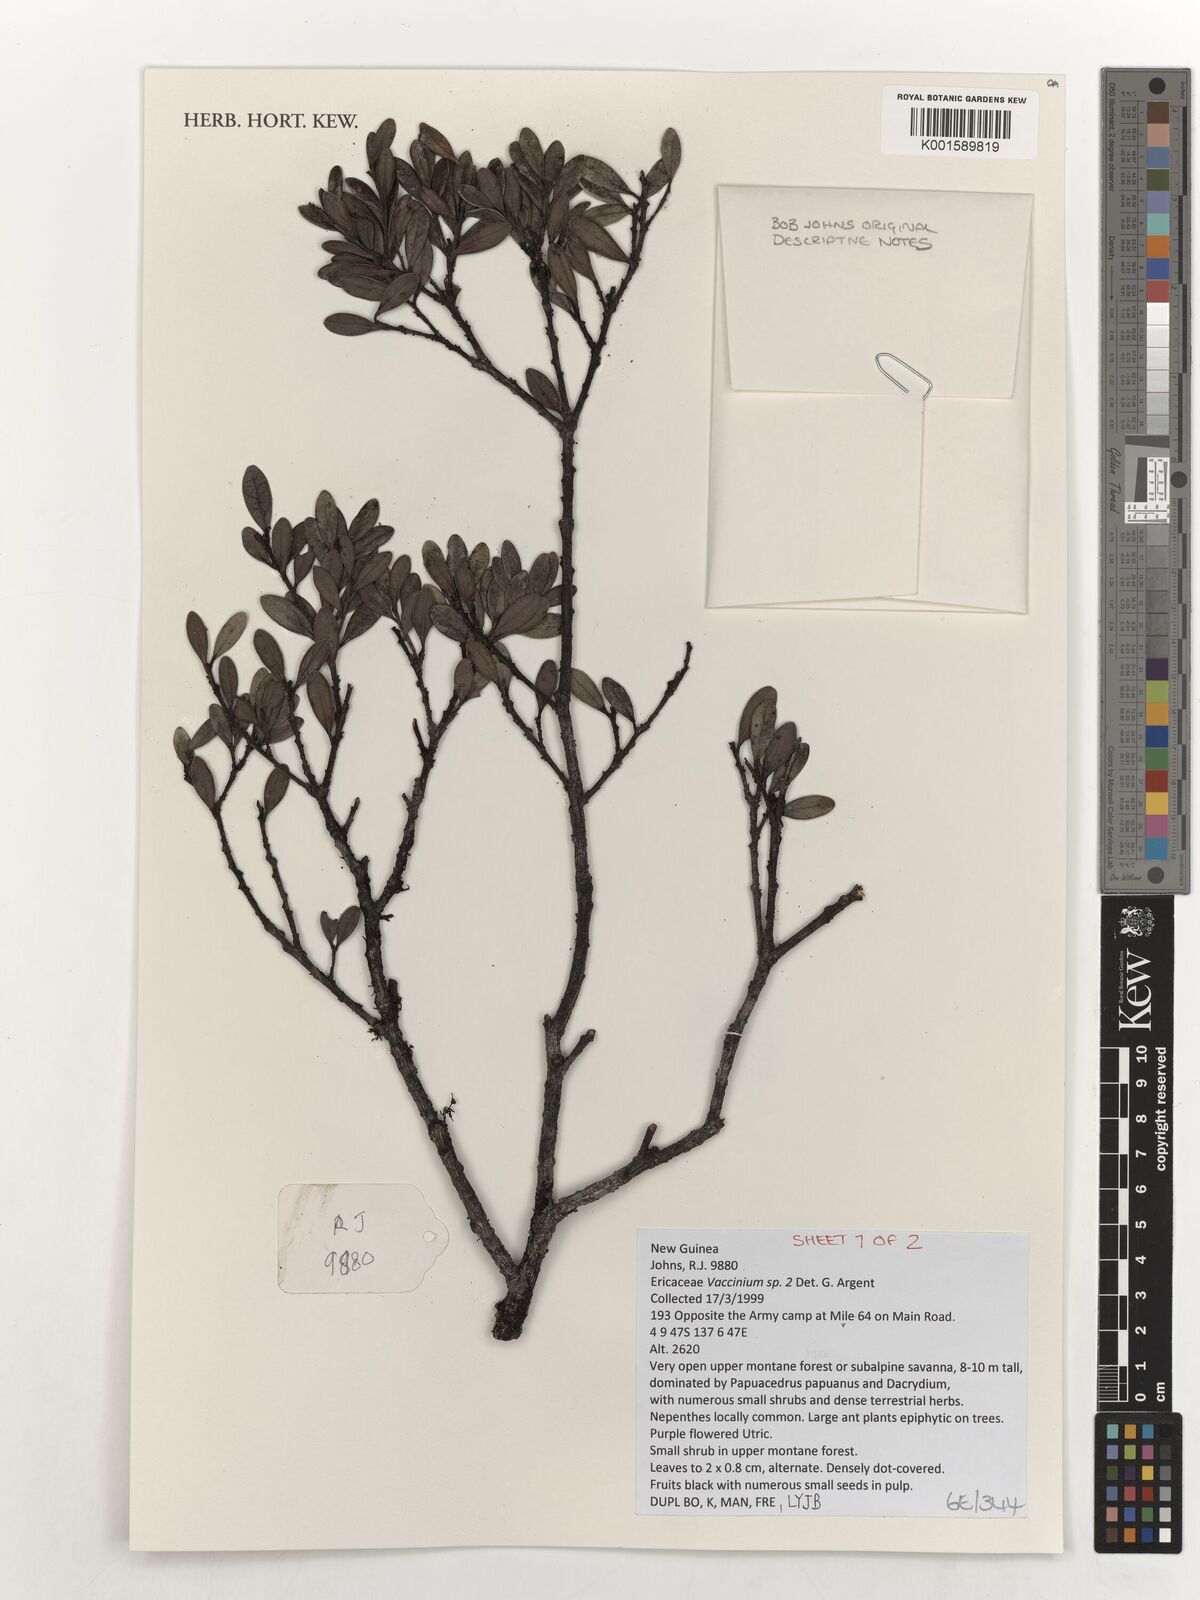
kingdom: Plantae
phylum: Tracheophyta
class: Magnoliopsida
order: Ericales
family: Ericaceae
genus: Vaccinium
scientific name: Vaccinium
